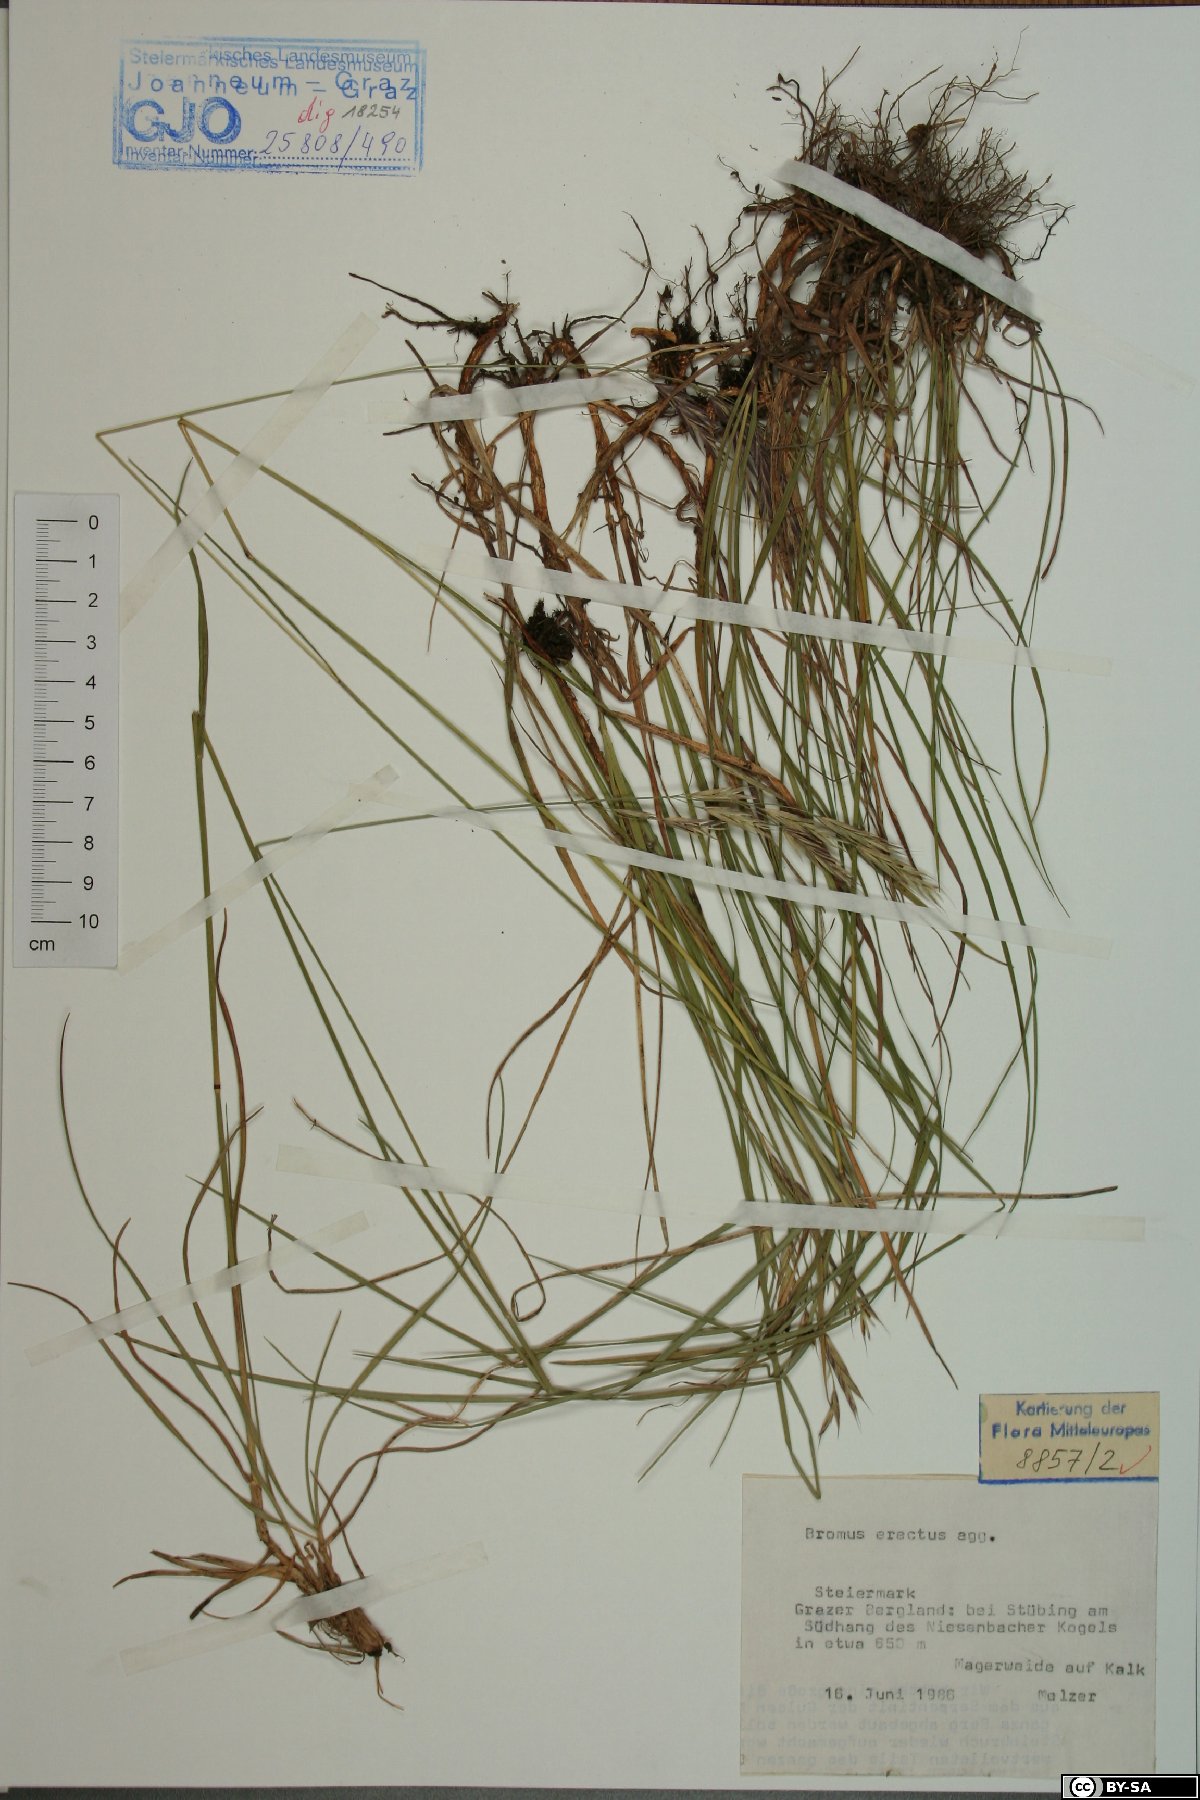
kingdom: Plantae
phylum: Tracheophyta
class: Liliopsida
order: Poales
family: Poaceae
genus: Bromus
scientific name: Bromus erectus
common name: Erect brome
